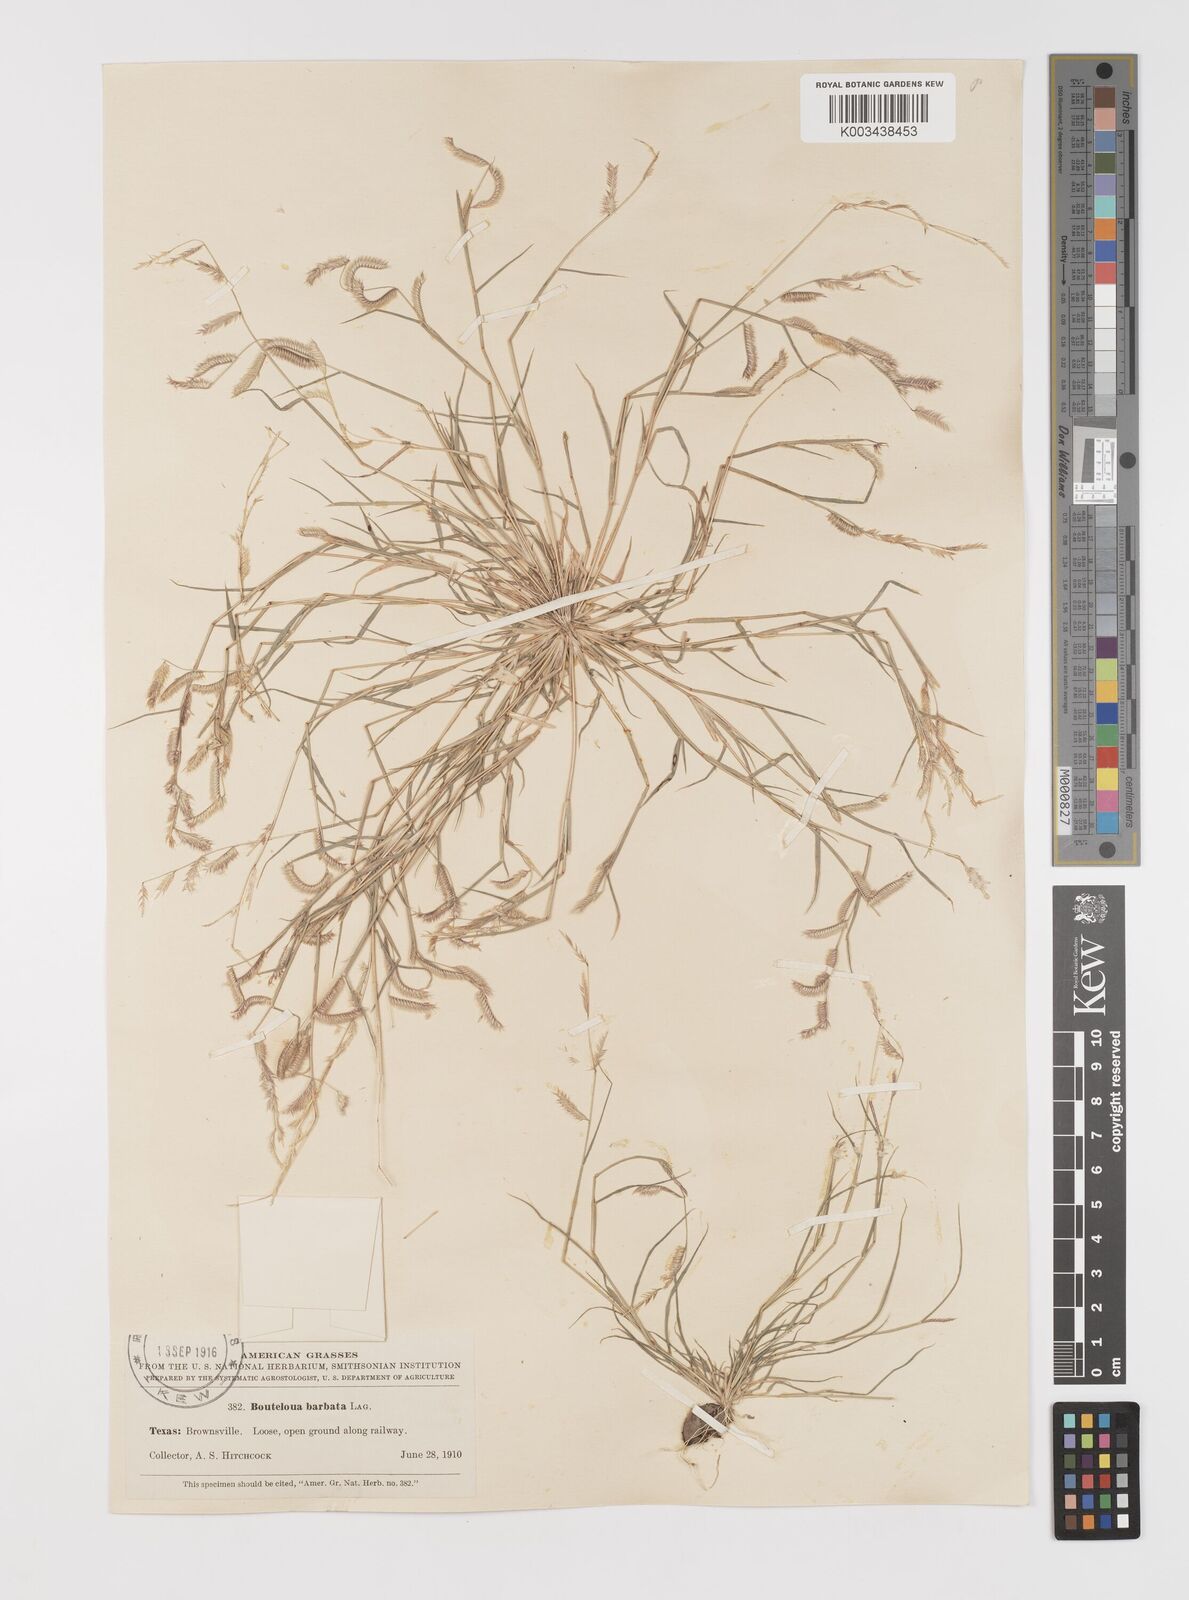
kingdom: Plantae
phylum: Tracheophyta
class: Liliopsida
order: Poales
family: Poaceae
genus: Bouteloua
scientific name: Bouteloua
